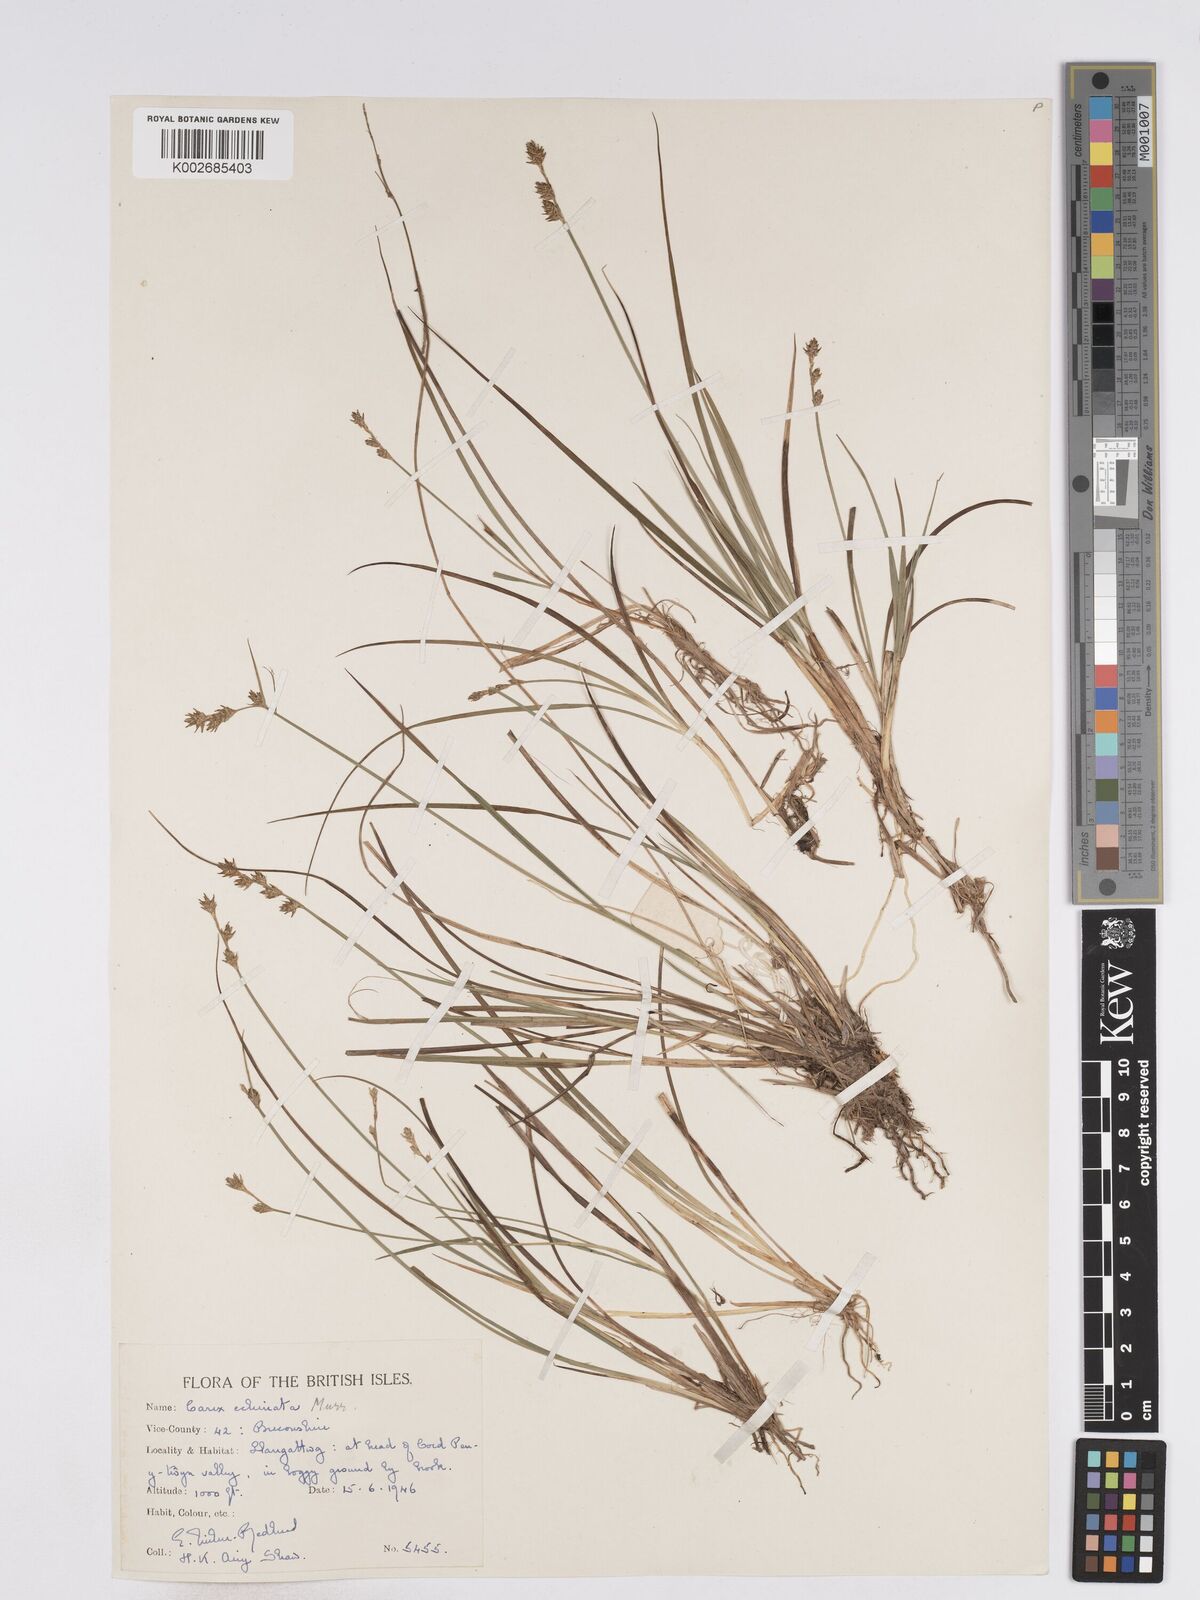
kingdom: Plantae
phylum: Tracheophyta
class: Liliopsida
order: Poales
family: Cyperaceae
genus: Carex
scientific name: Carex echinata
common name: Star sedge
